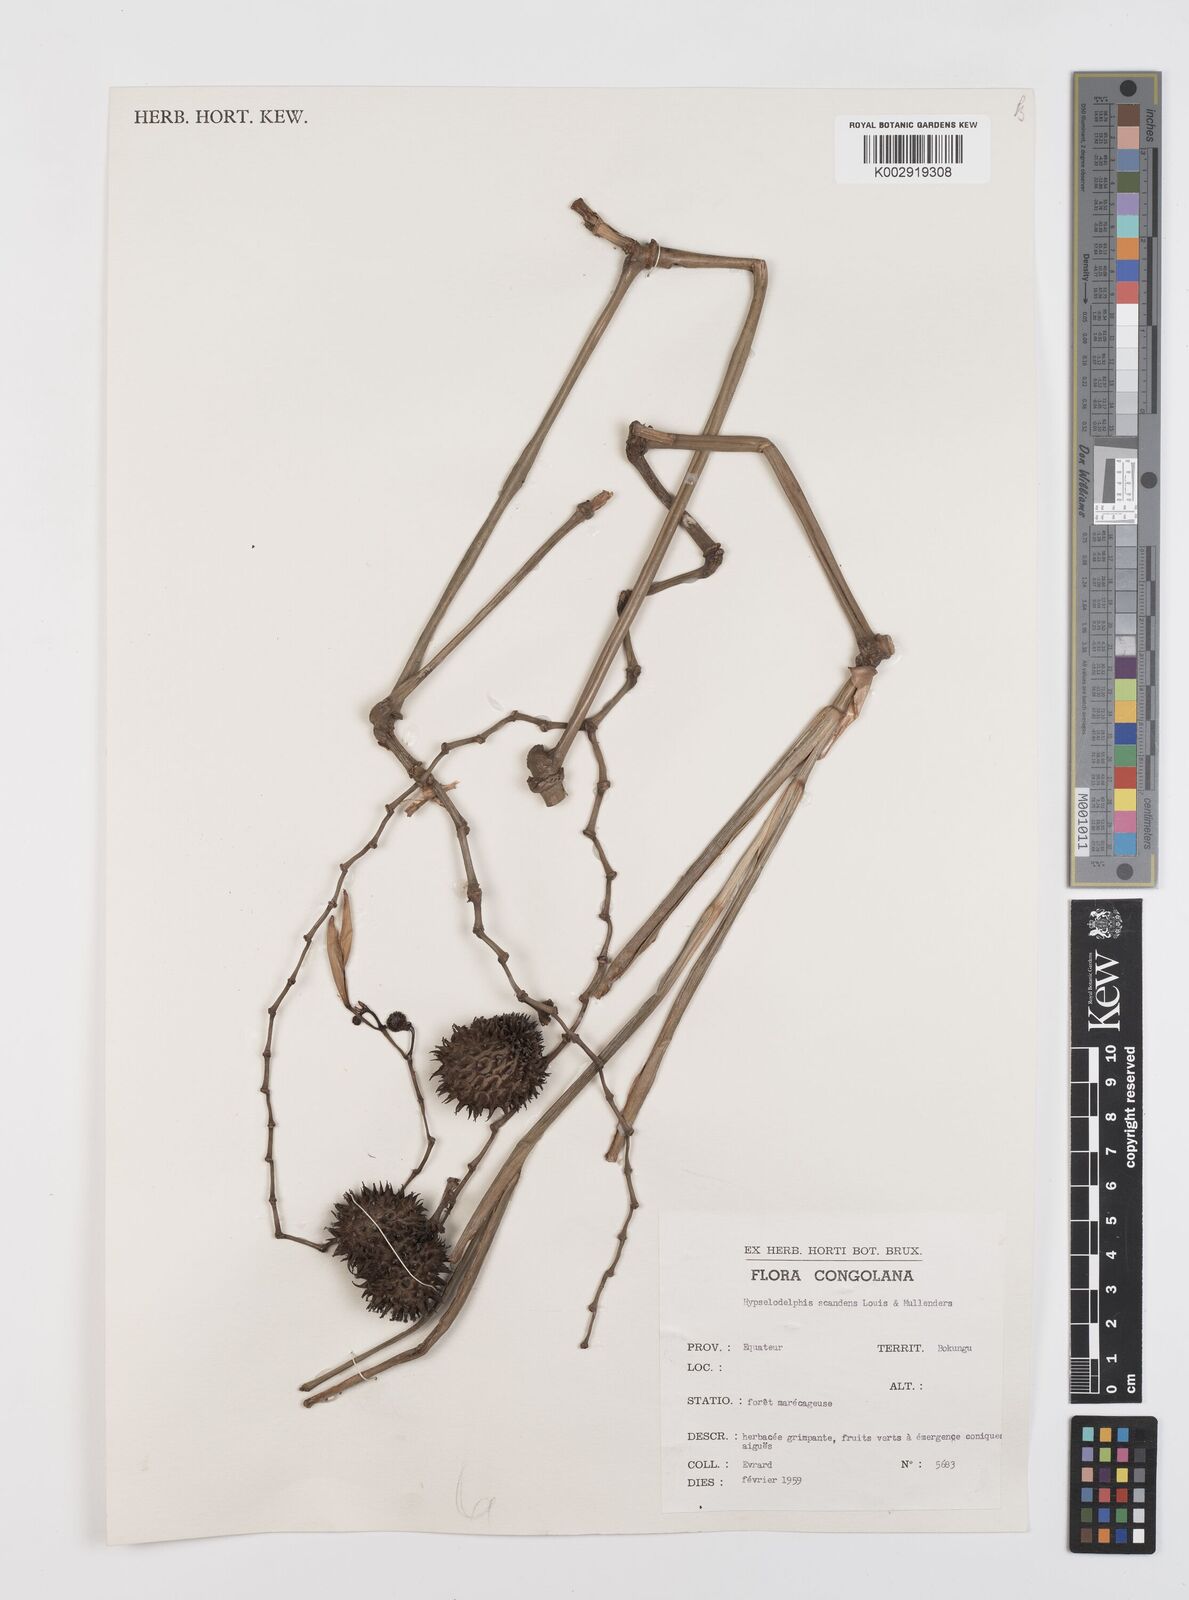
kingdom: Plantae
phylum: Tracheophyta
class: Liliopsida
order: Zingiberales
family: Marantaceae
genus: Hypselodelphys
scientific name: Hypselodelphys scandens
